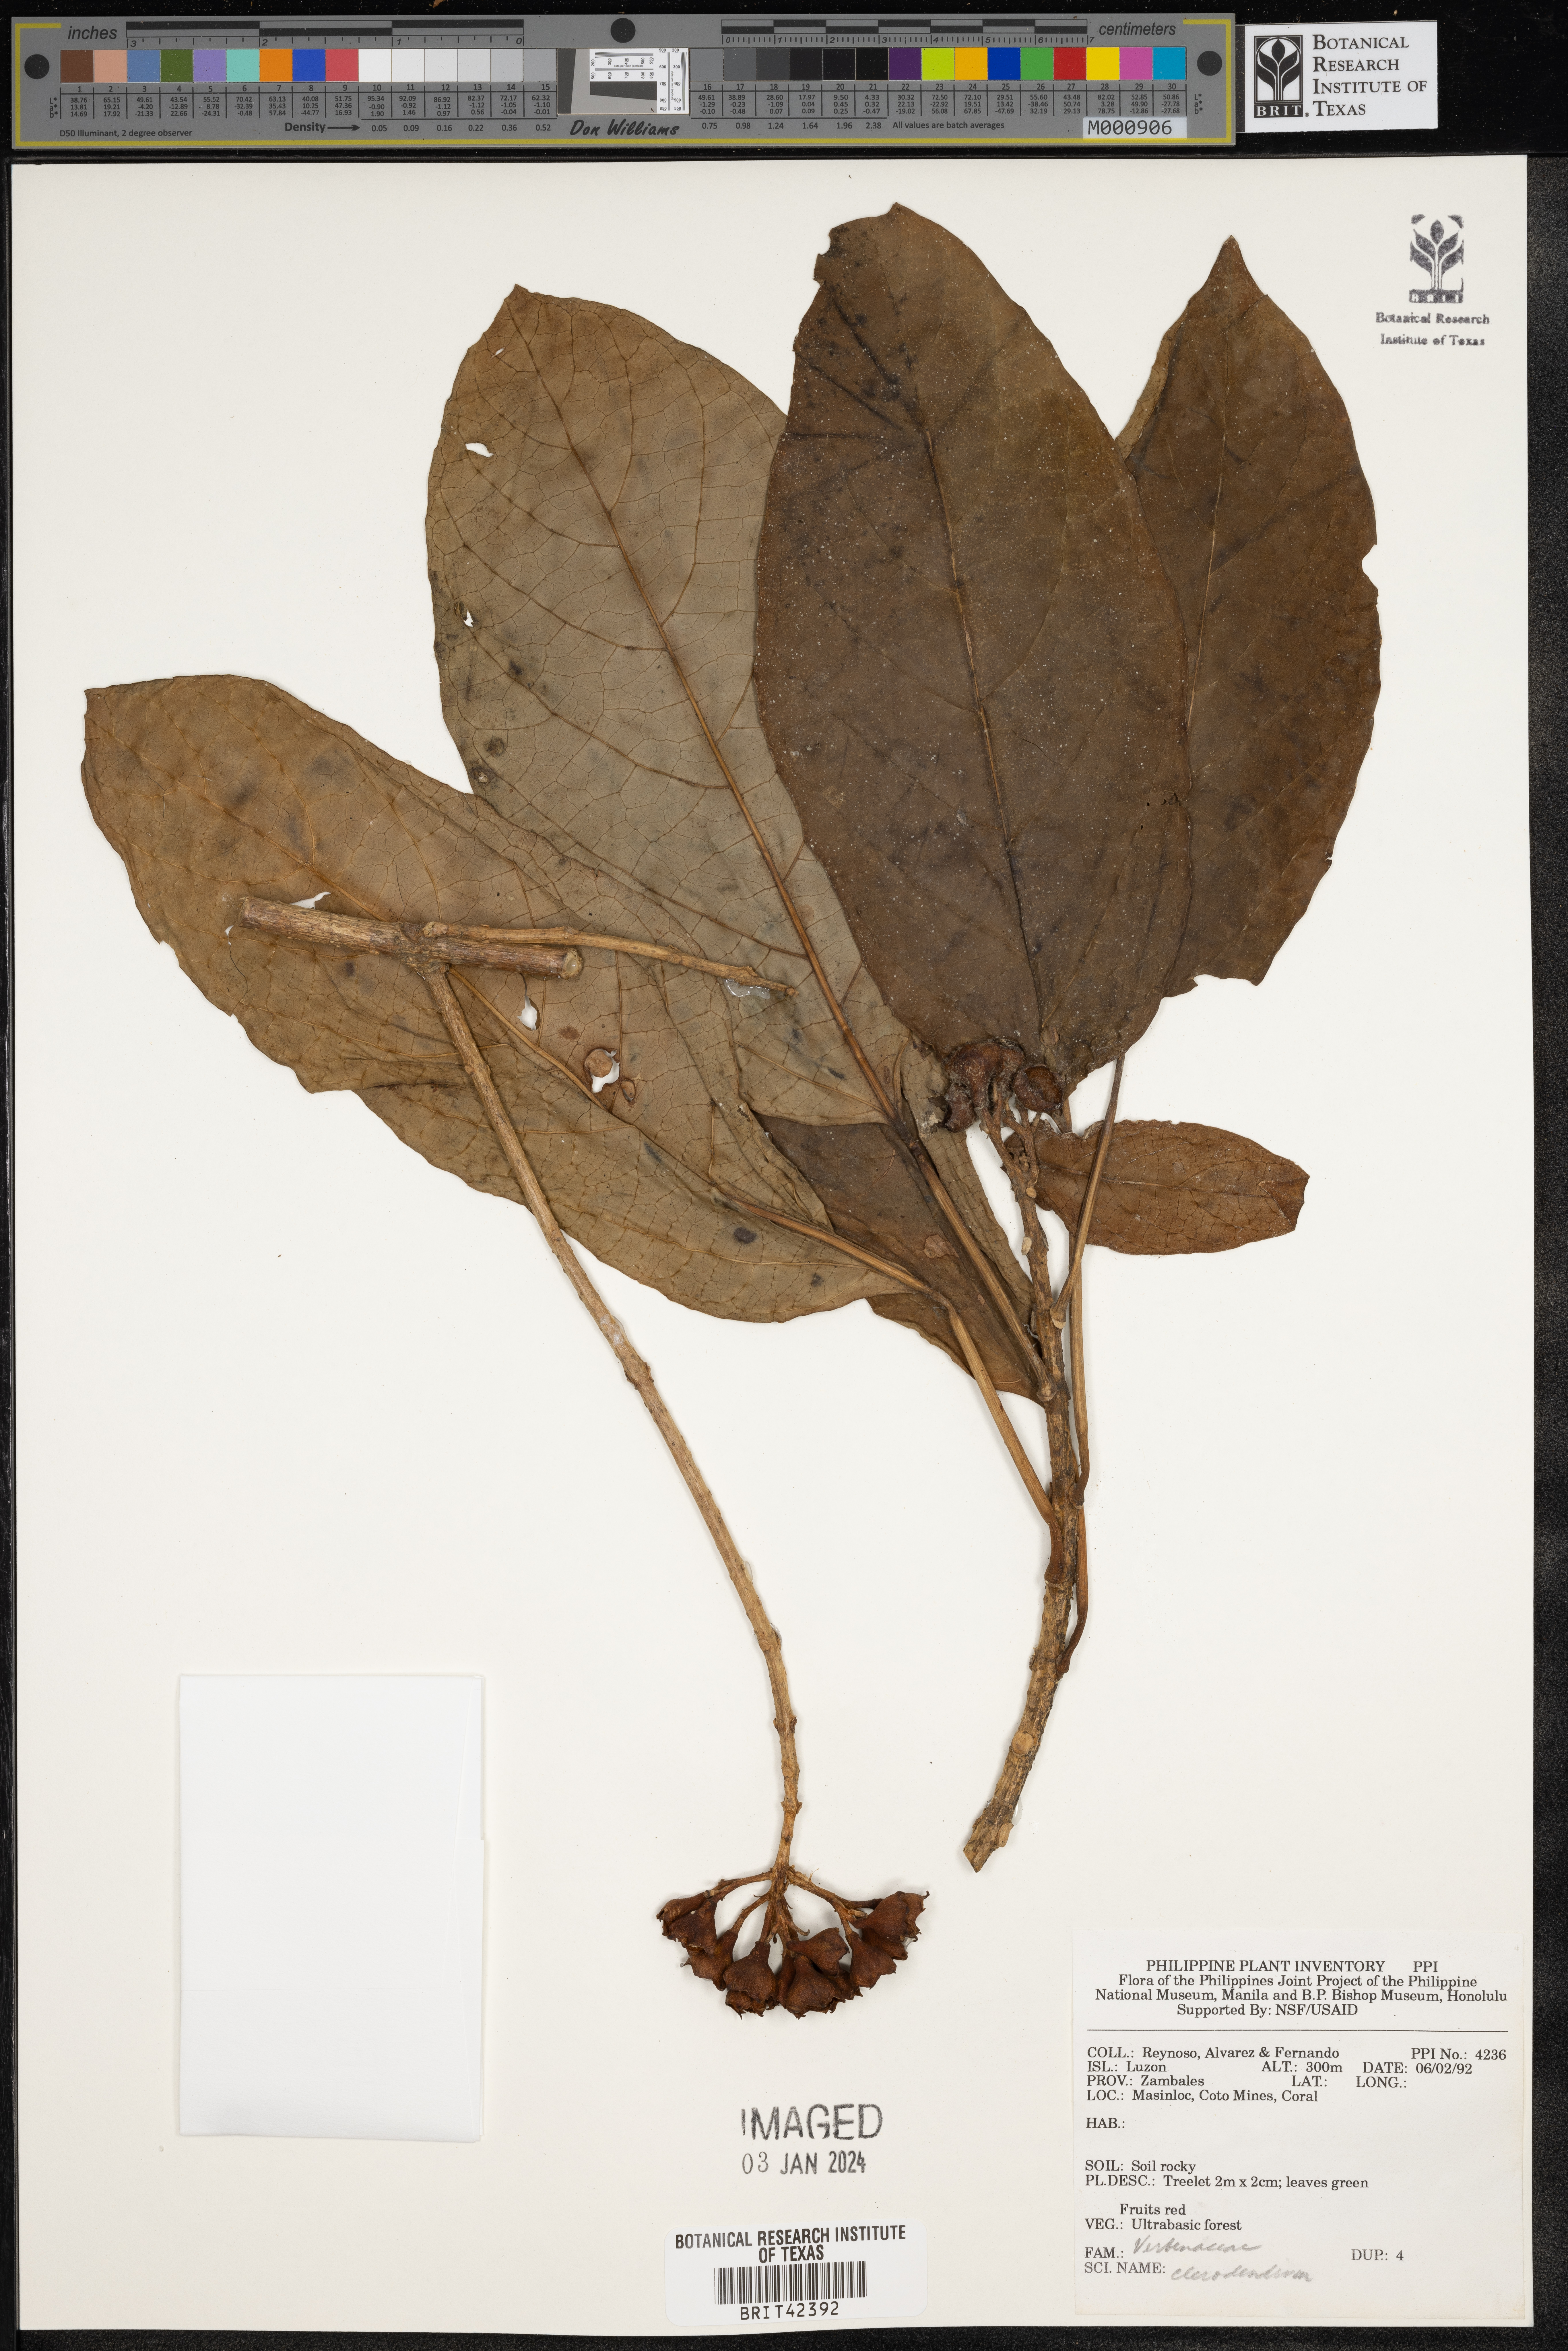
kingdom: Plantae
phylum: Tracheophyta
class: Magnoliopsida
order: Lamiales
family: Lamiaceae
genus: Clerodendrum
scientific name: Clerodendrum
